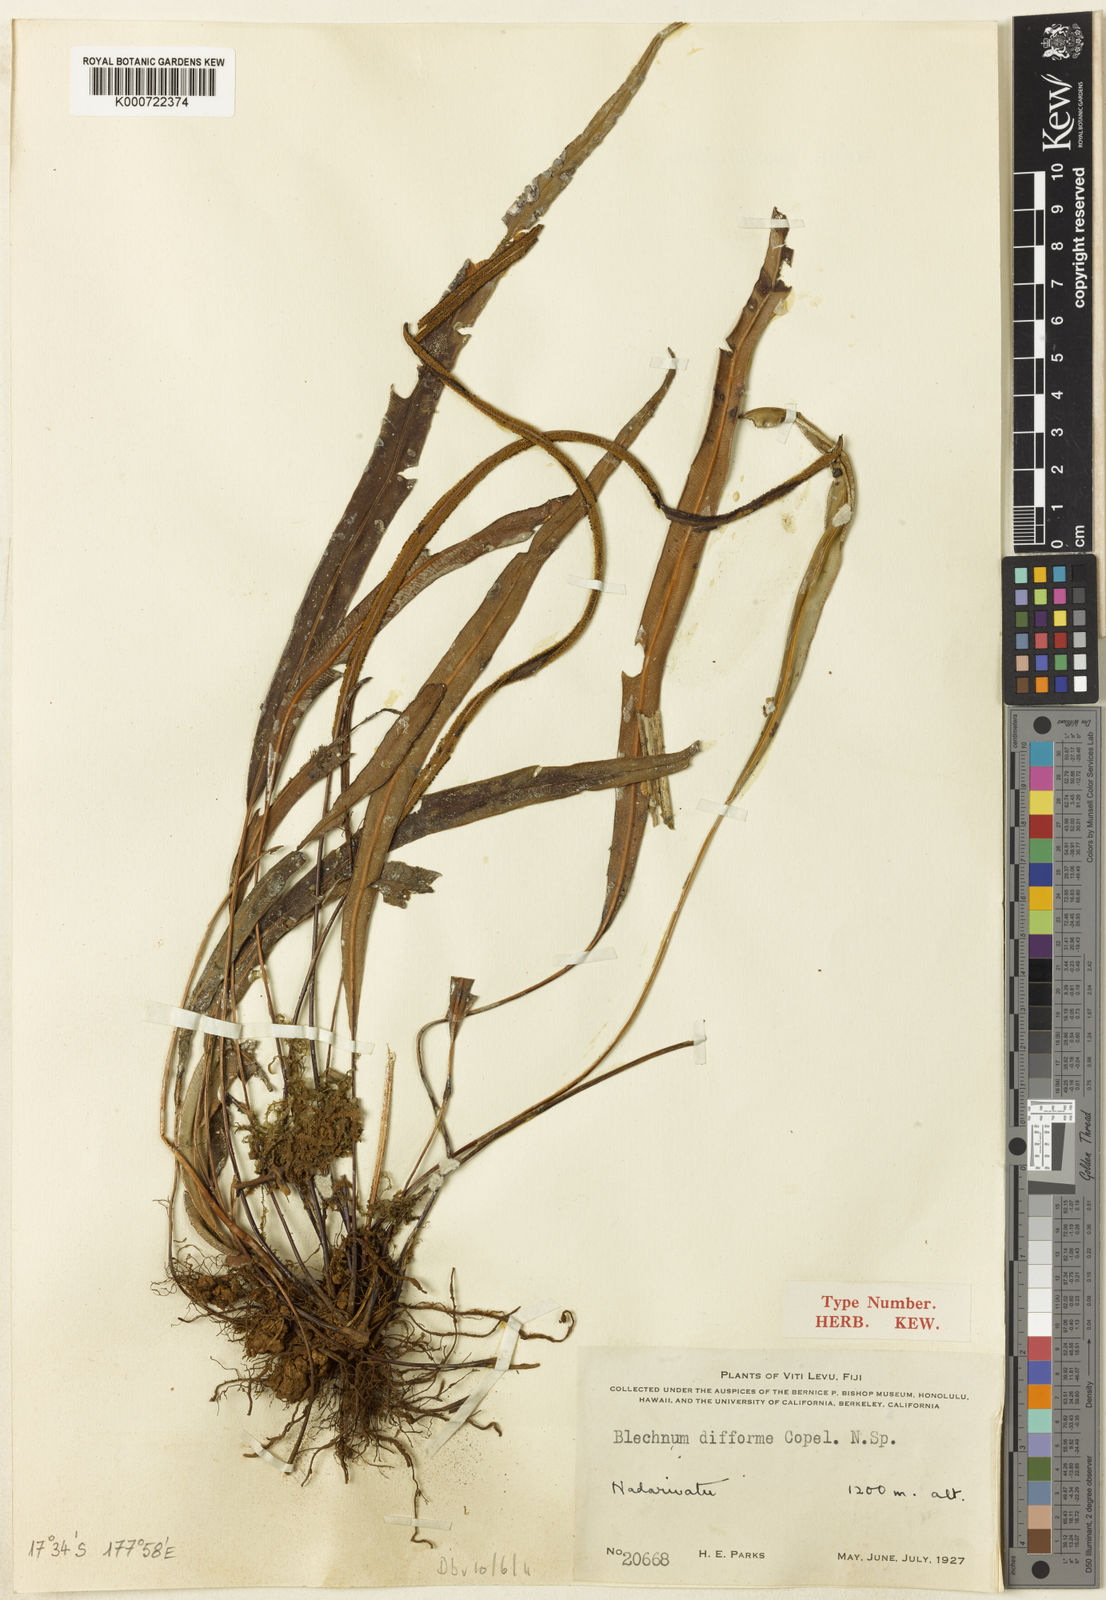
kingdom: Plantae
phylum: Tracheophyta
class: Polypodiopsida
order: Polypodiales
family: Blechnaceae
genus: Austroblechnum
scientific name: Austroblechnum difforme
